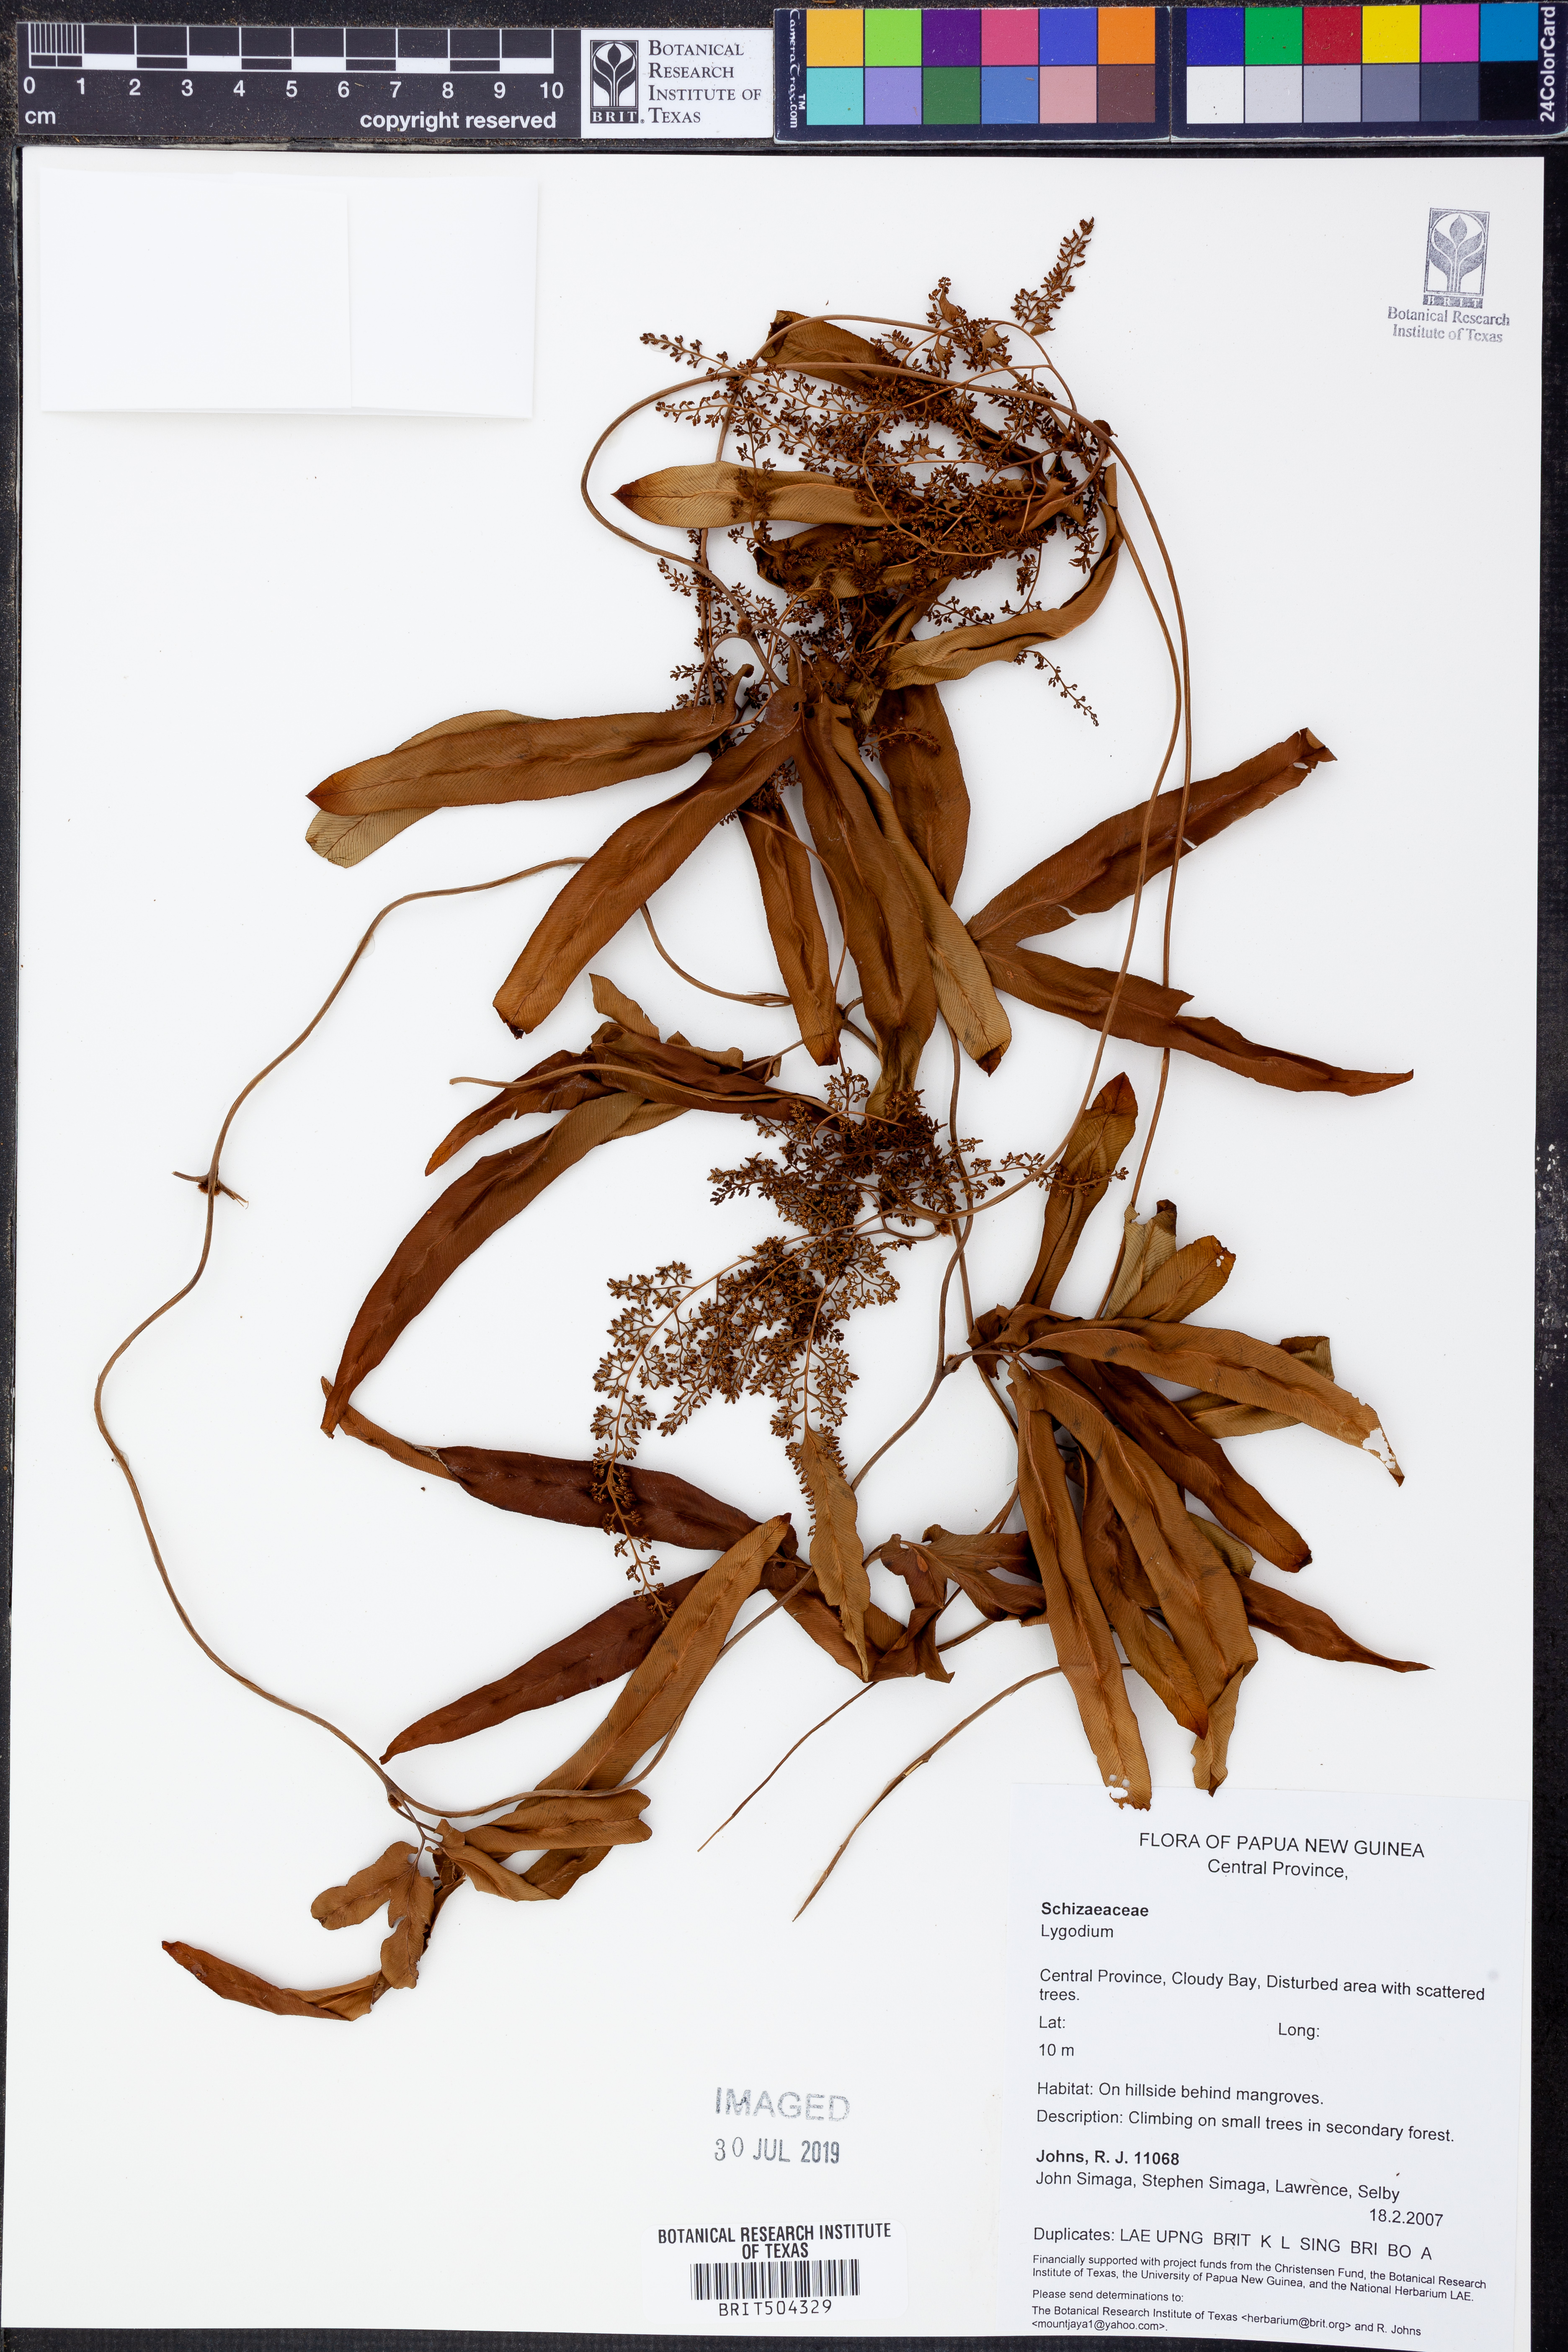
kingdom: Plantae
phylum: Tracheophyta
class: Polypodiopsida
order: Schizaeales
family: Lygodiaceae
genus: Lygodium
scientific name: Lygodium
